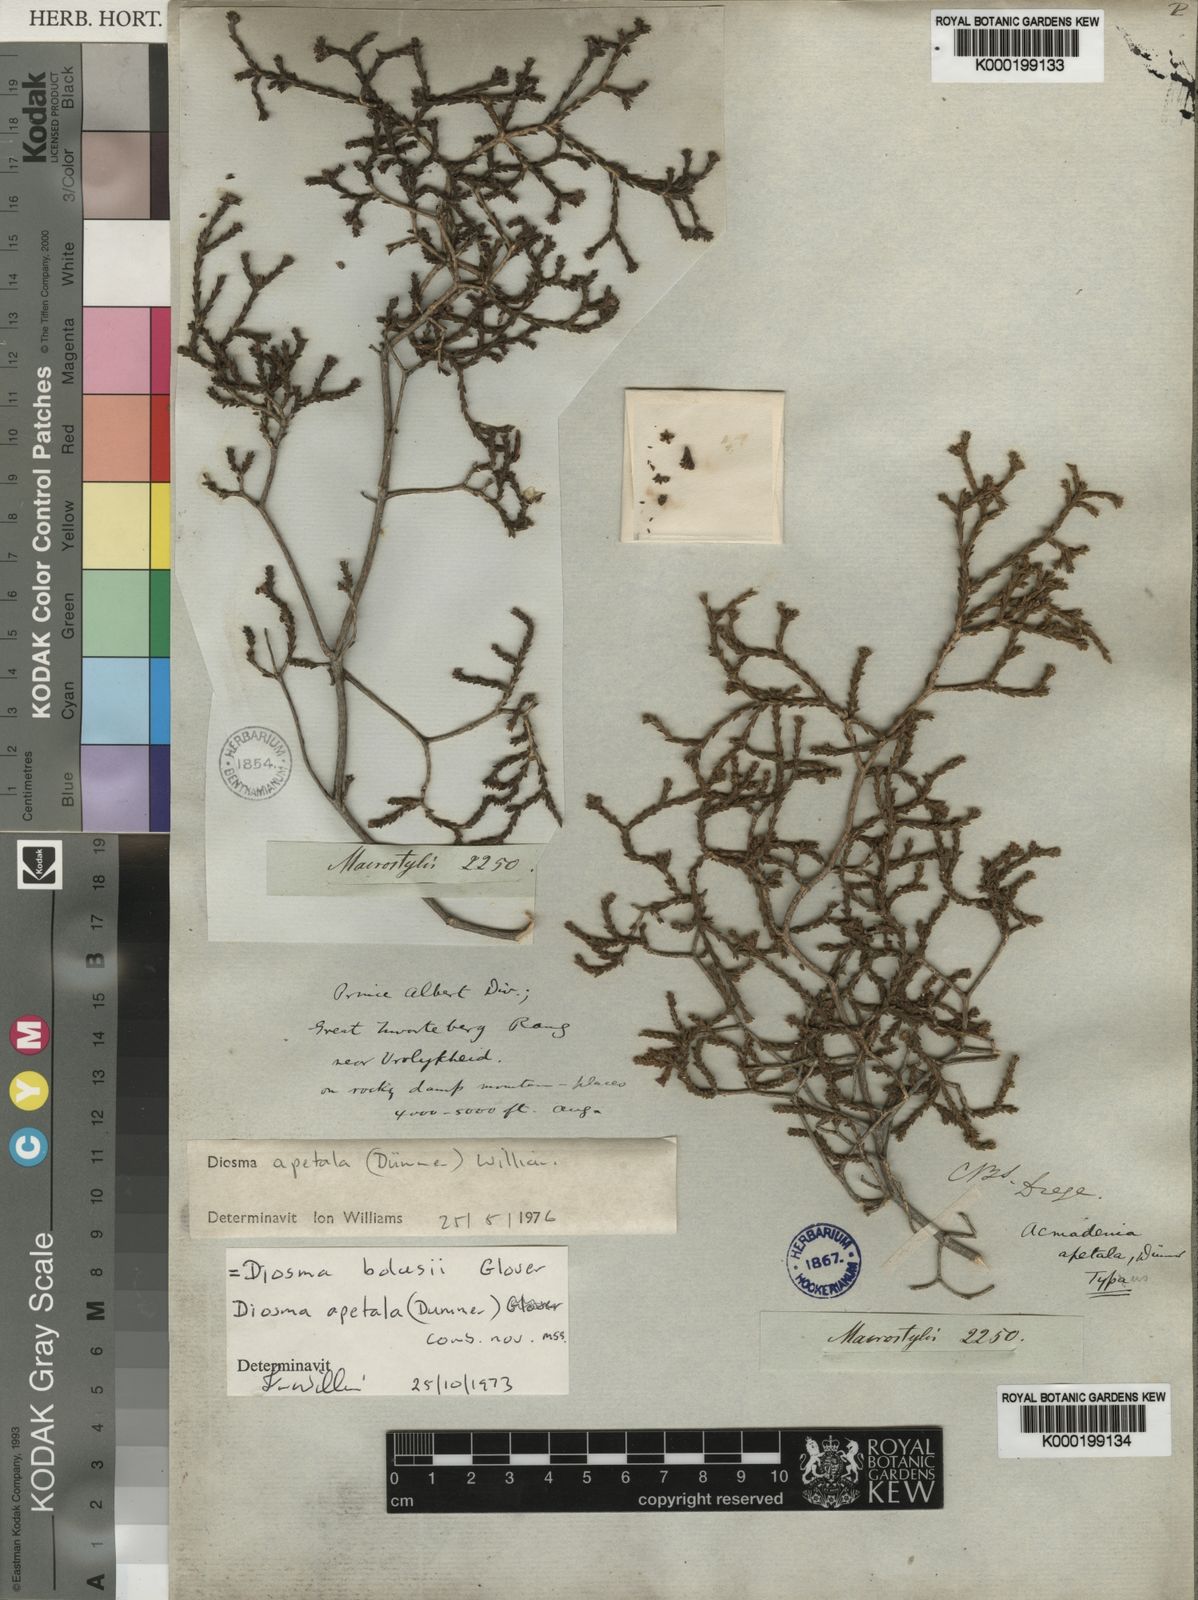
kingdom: Plantae
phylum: Tracheophyta
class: Magnoliopsida
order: Sapindales
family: Rutaceae
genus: Diosma
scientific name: Diosma apetala
